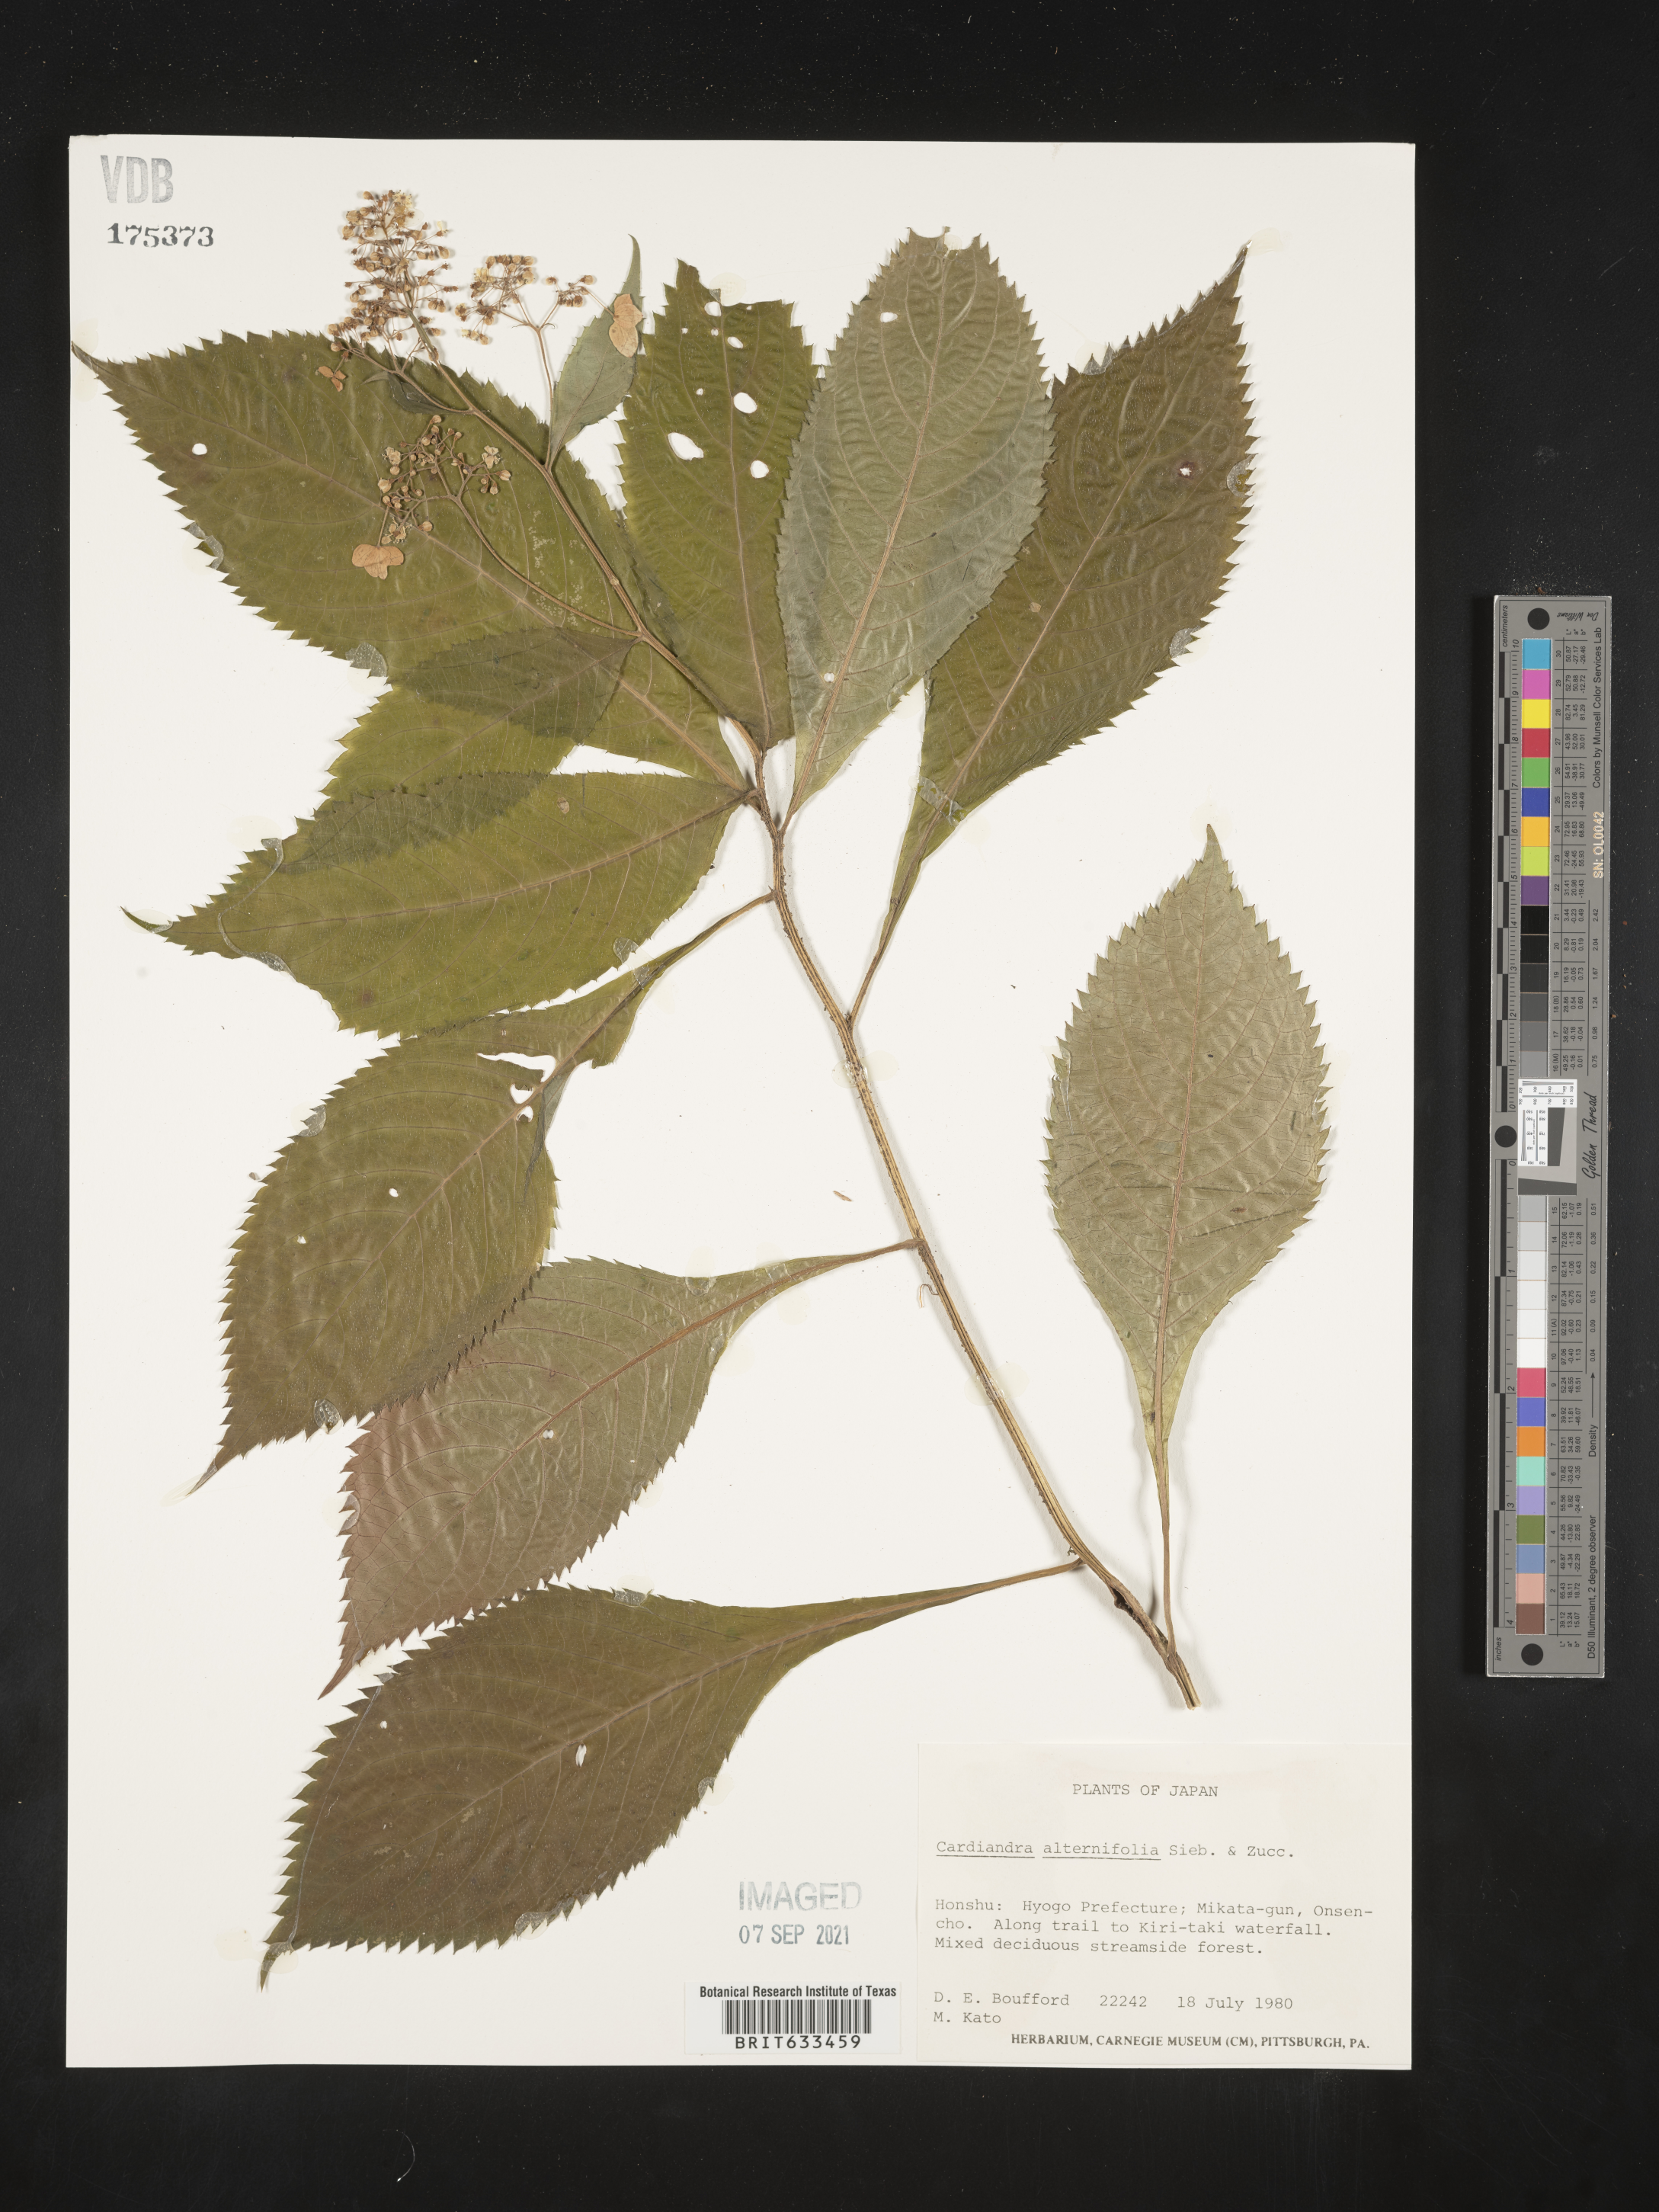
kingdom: Plantae
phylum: Tracheophyta
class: Magnoliopsida
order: Cornales
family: Hydrangeaceae
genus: Hydrangea
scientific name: Hydrangea alternifolia
